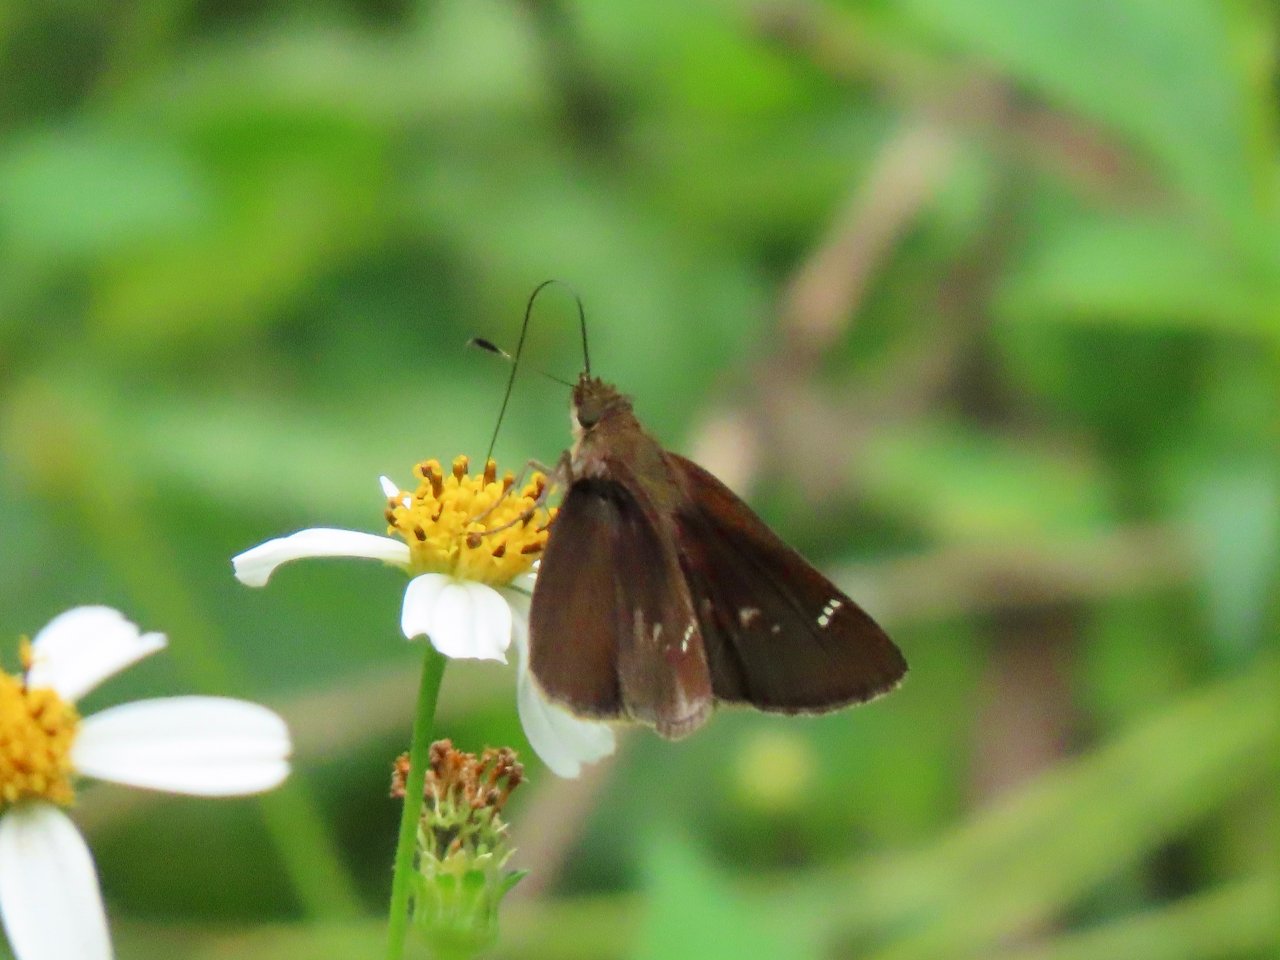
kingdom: Animalia
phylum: Arthropoda
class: Insecta
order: Lepidoptera
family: Hesperiidae
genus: Lerema
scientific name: Lerema accius
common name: Clouded Skipper
